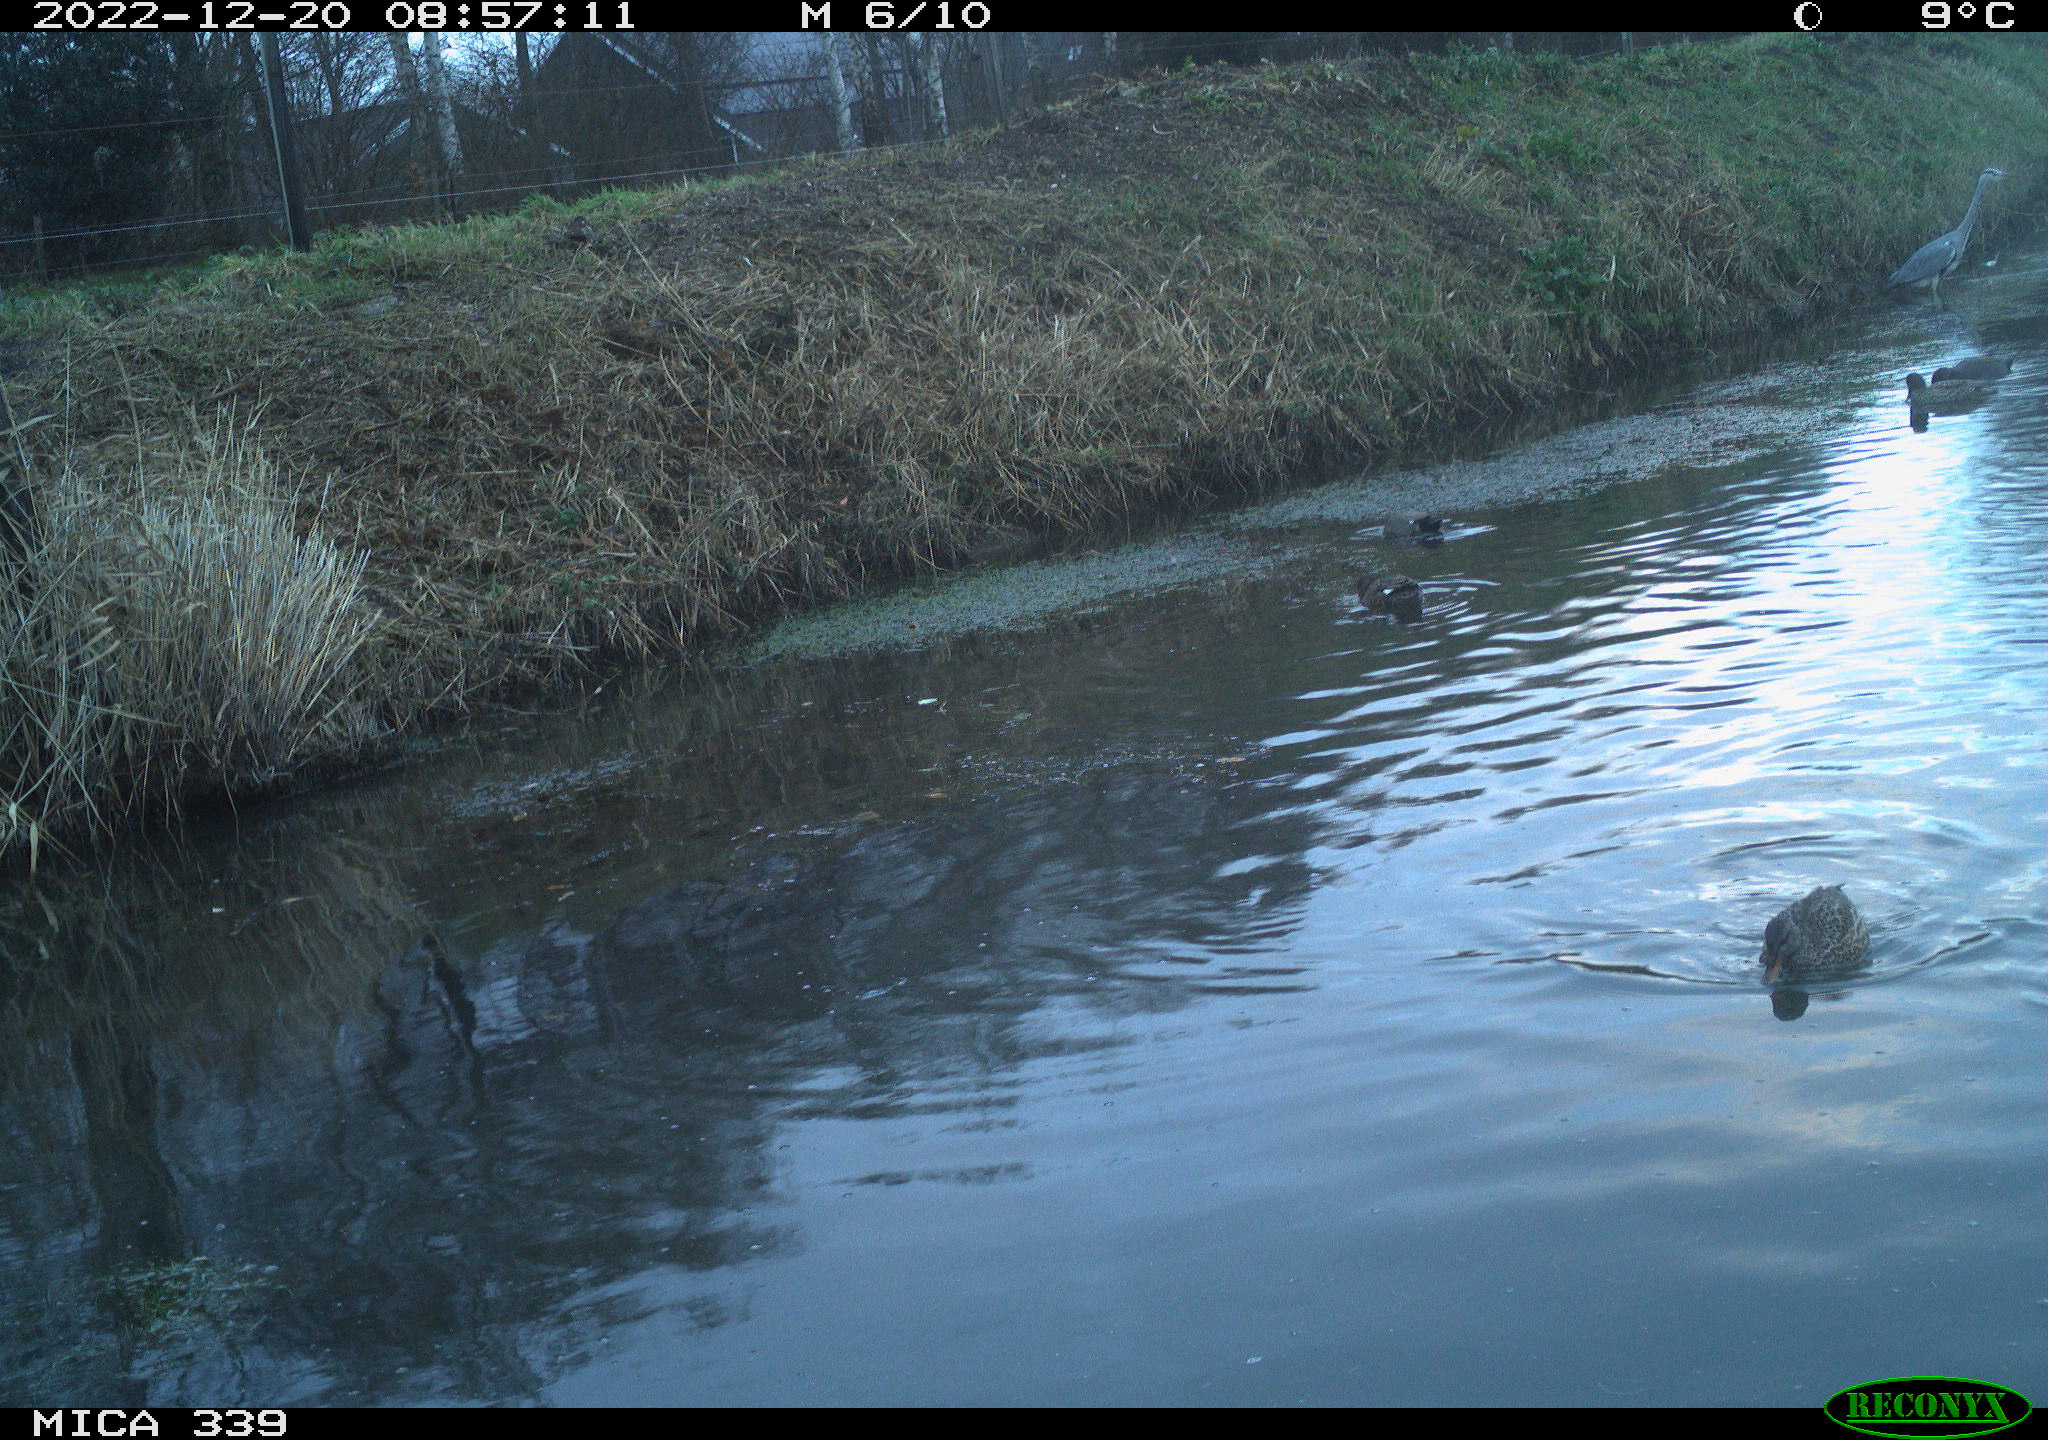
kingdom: Animalia
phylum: Chordata
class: Aves
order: Anseriformes
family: Anatidae
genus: Anas
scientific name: Anas
